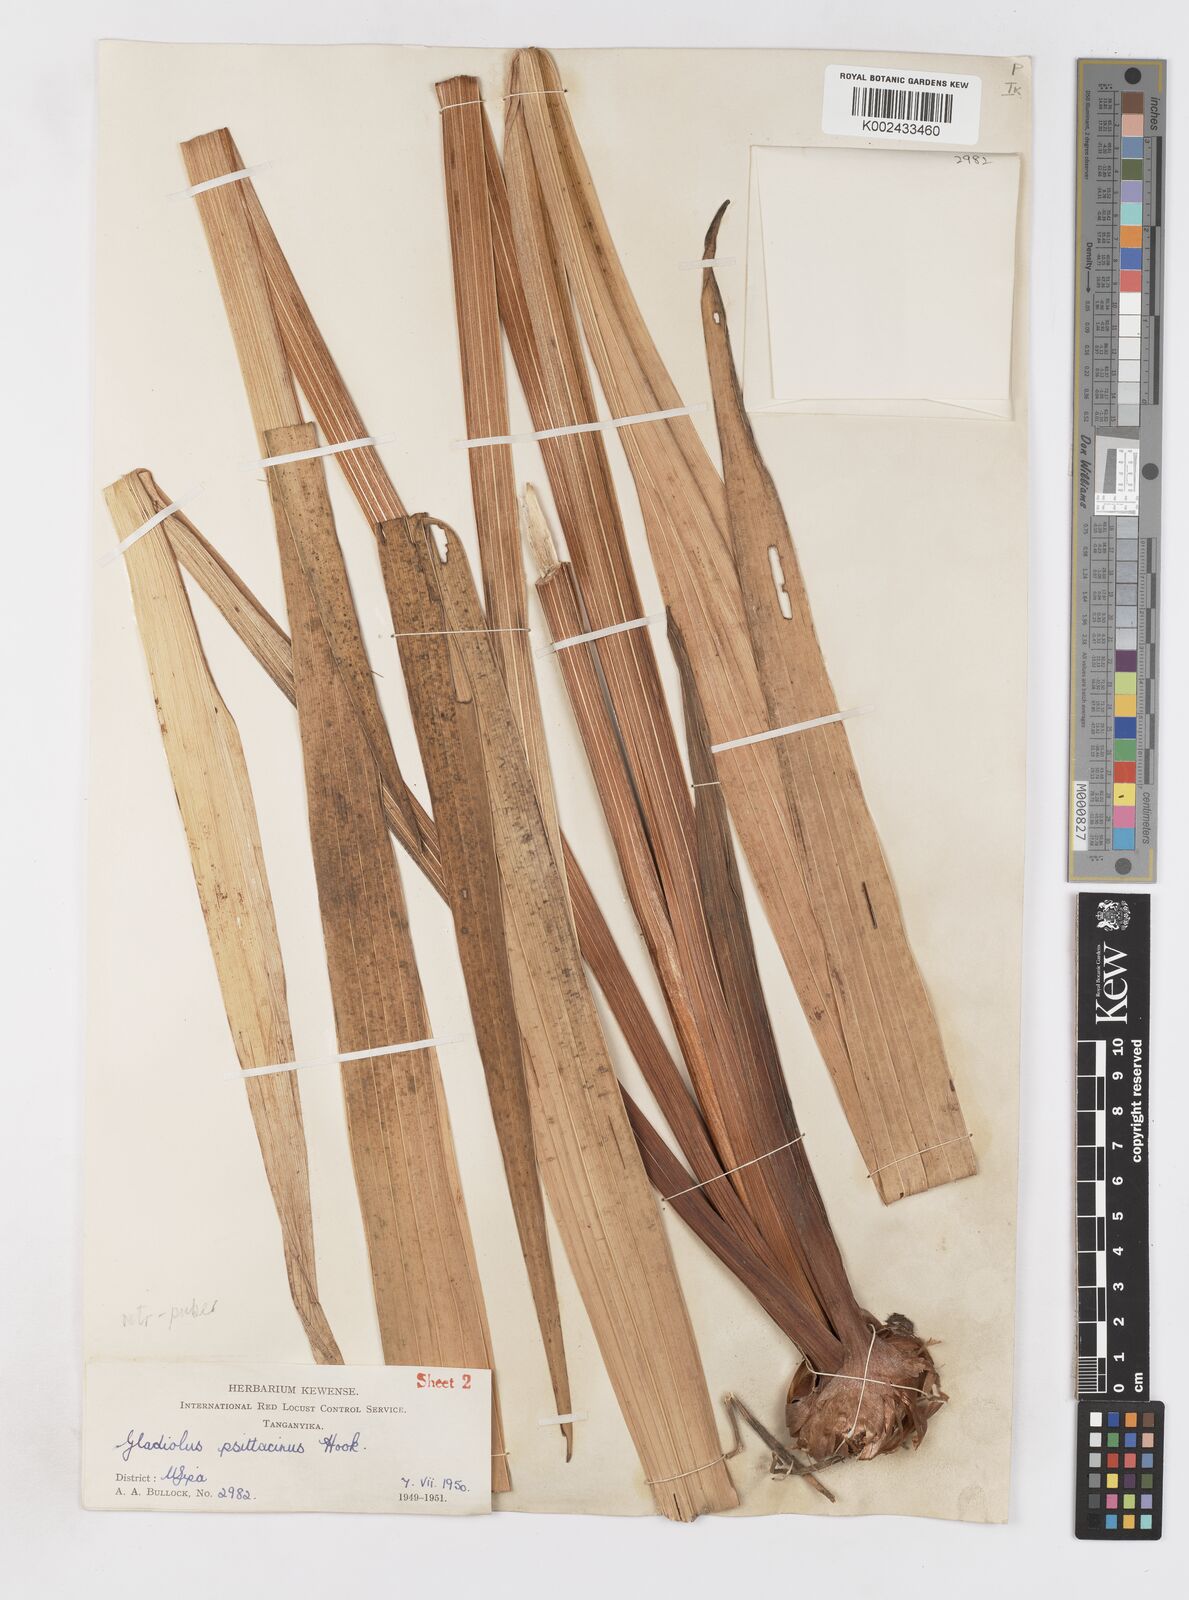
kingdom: Plantae
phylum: Tracheophyta
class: Liliopsida
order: Asparagales
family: Iridaceae
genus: Gladiolus
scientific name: Gladiolus dalenii
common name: Cornflag
